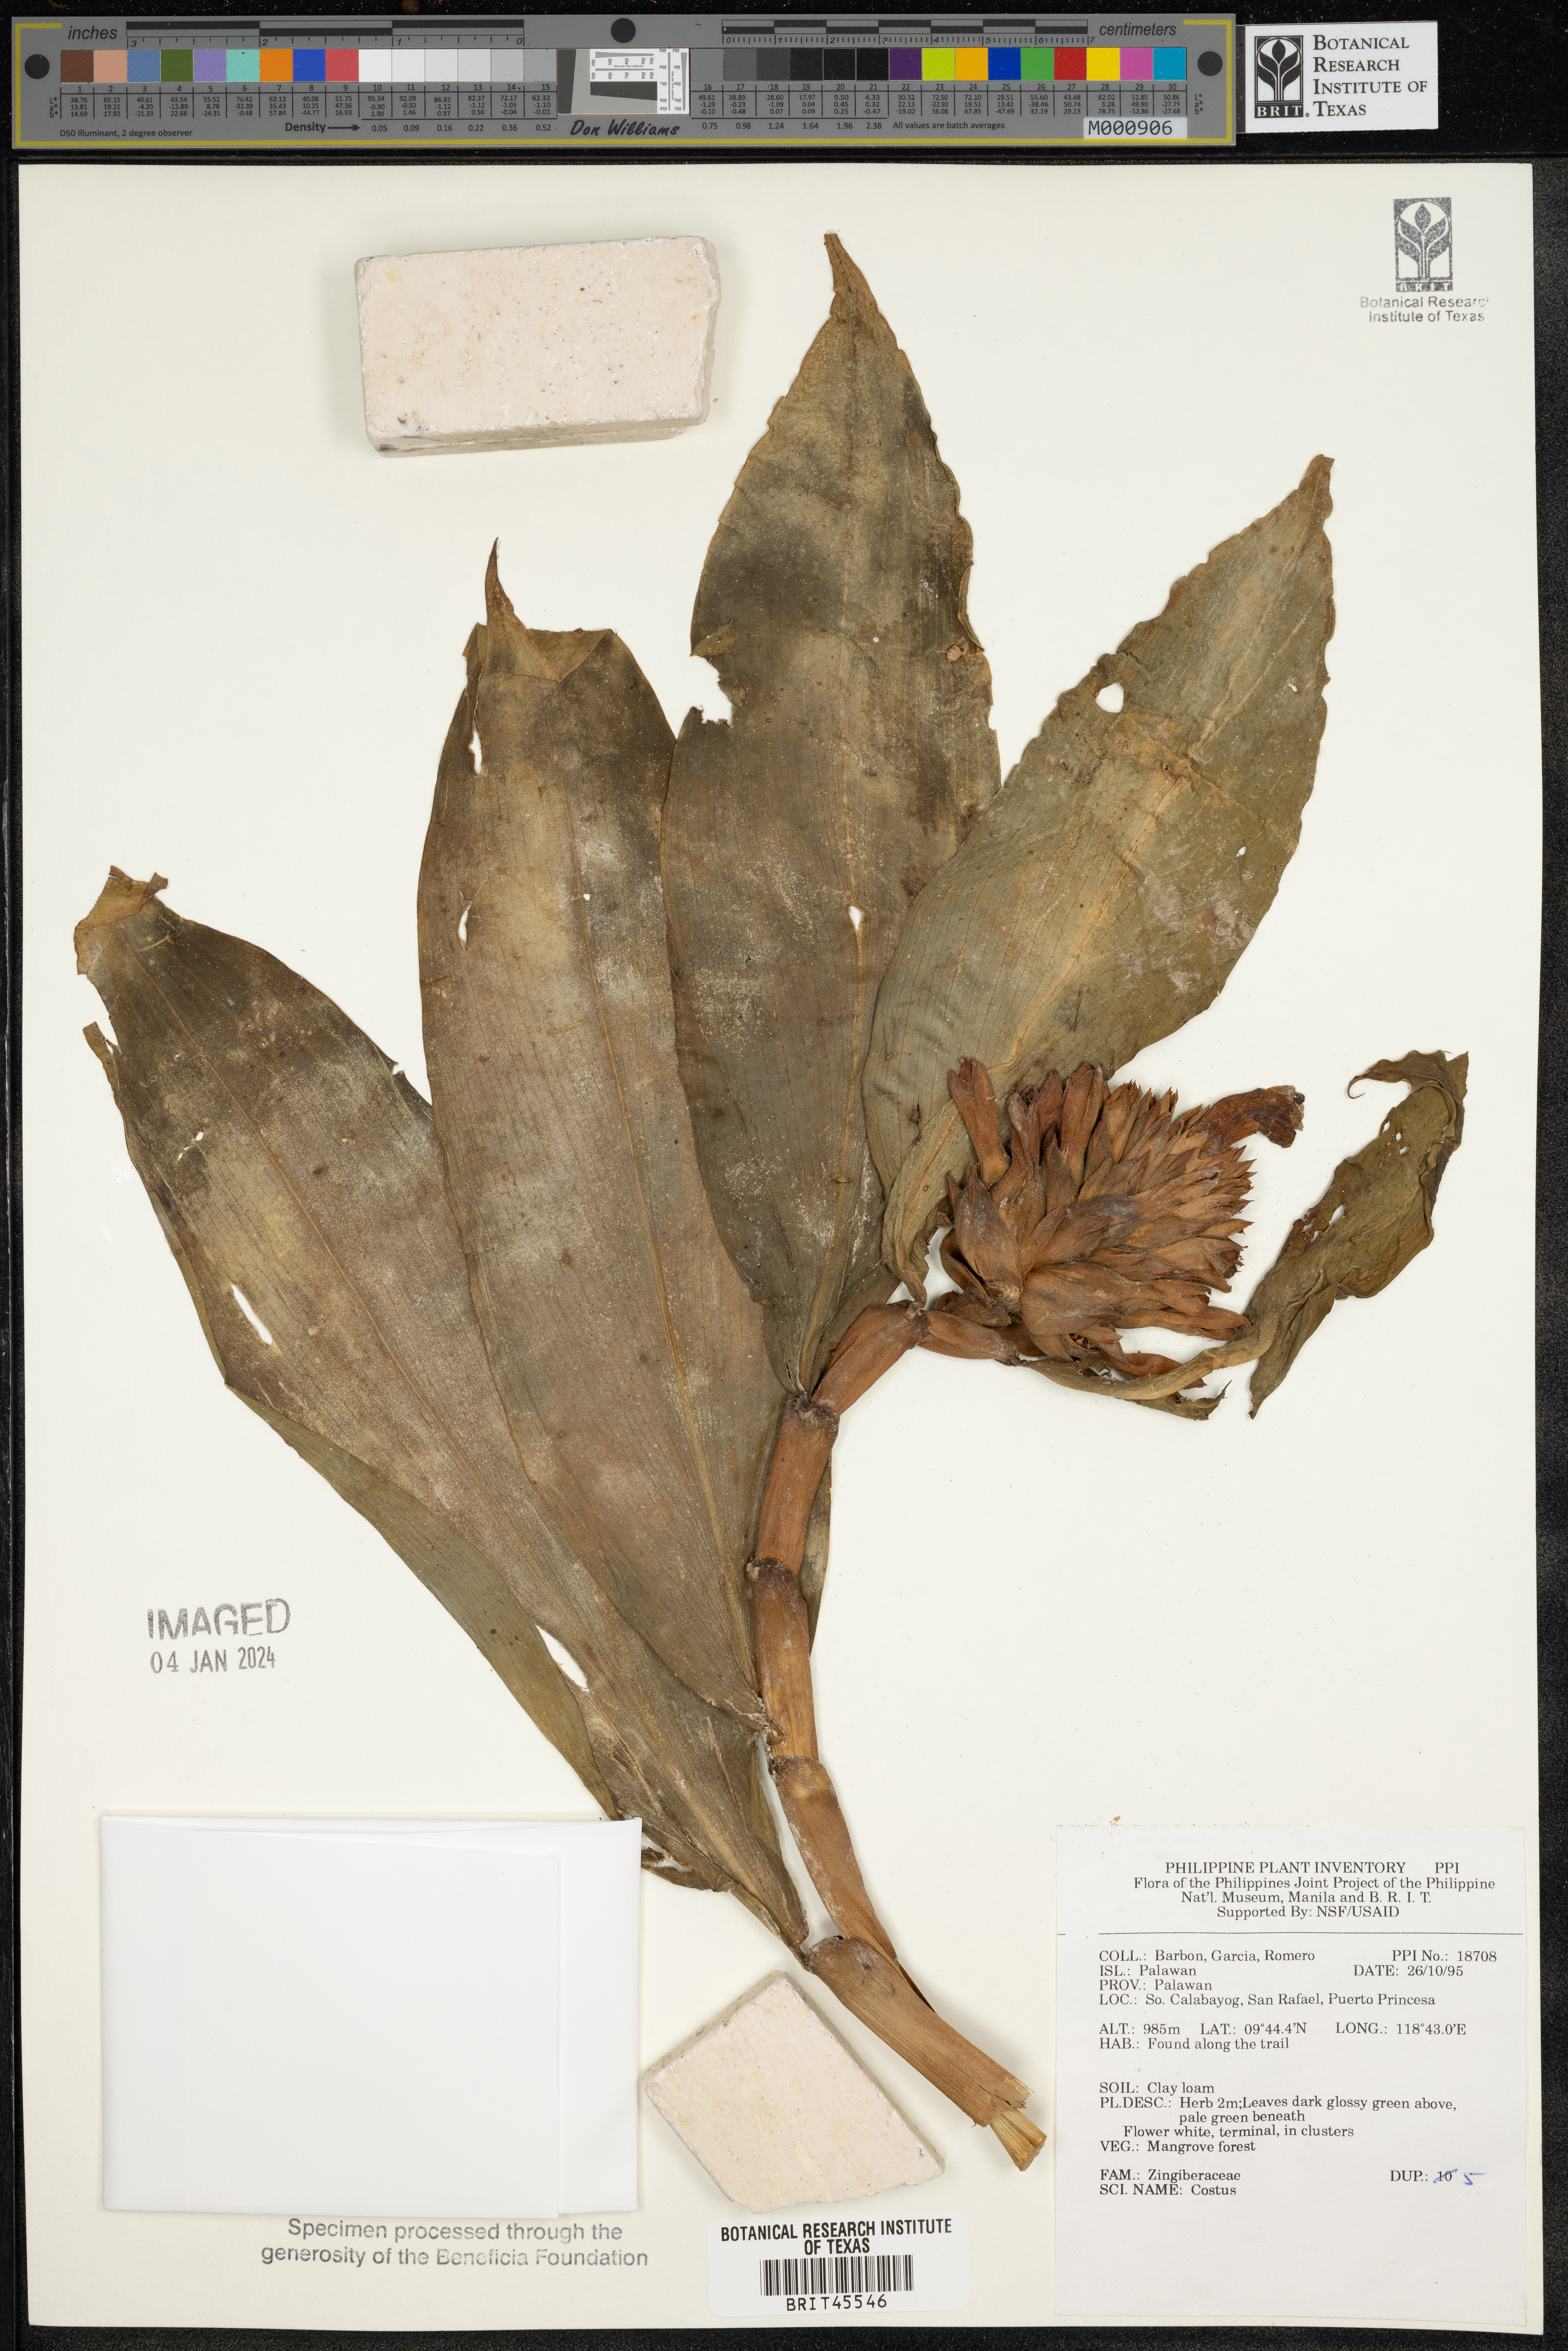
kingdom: Plantae
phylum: Tracheophyta
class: Liliopsida
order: Zingiberales
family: Costaceae
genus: Costus
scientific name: Costus
